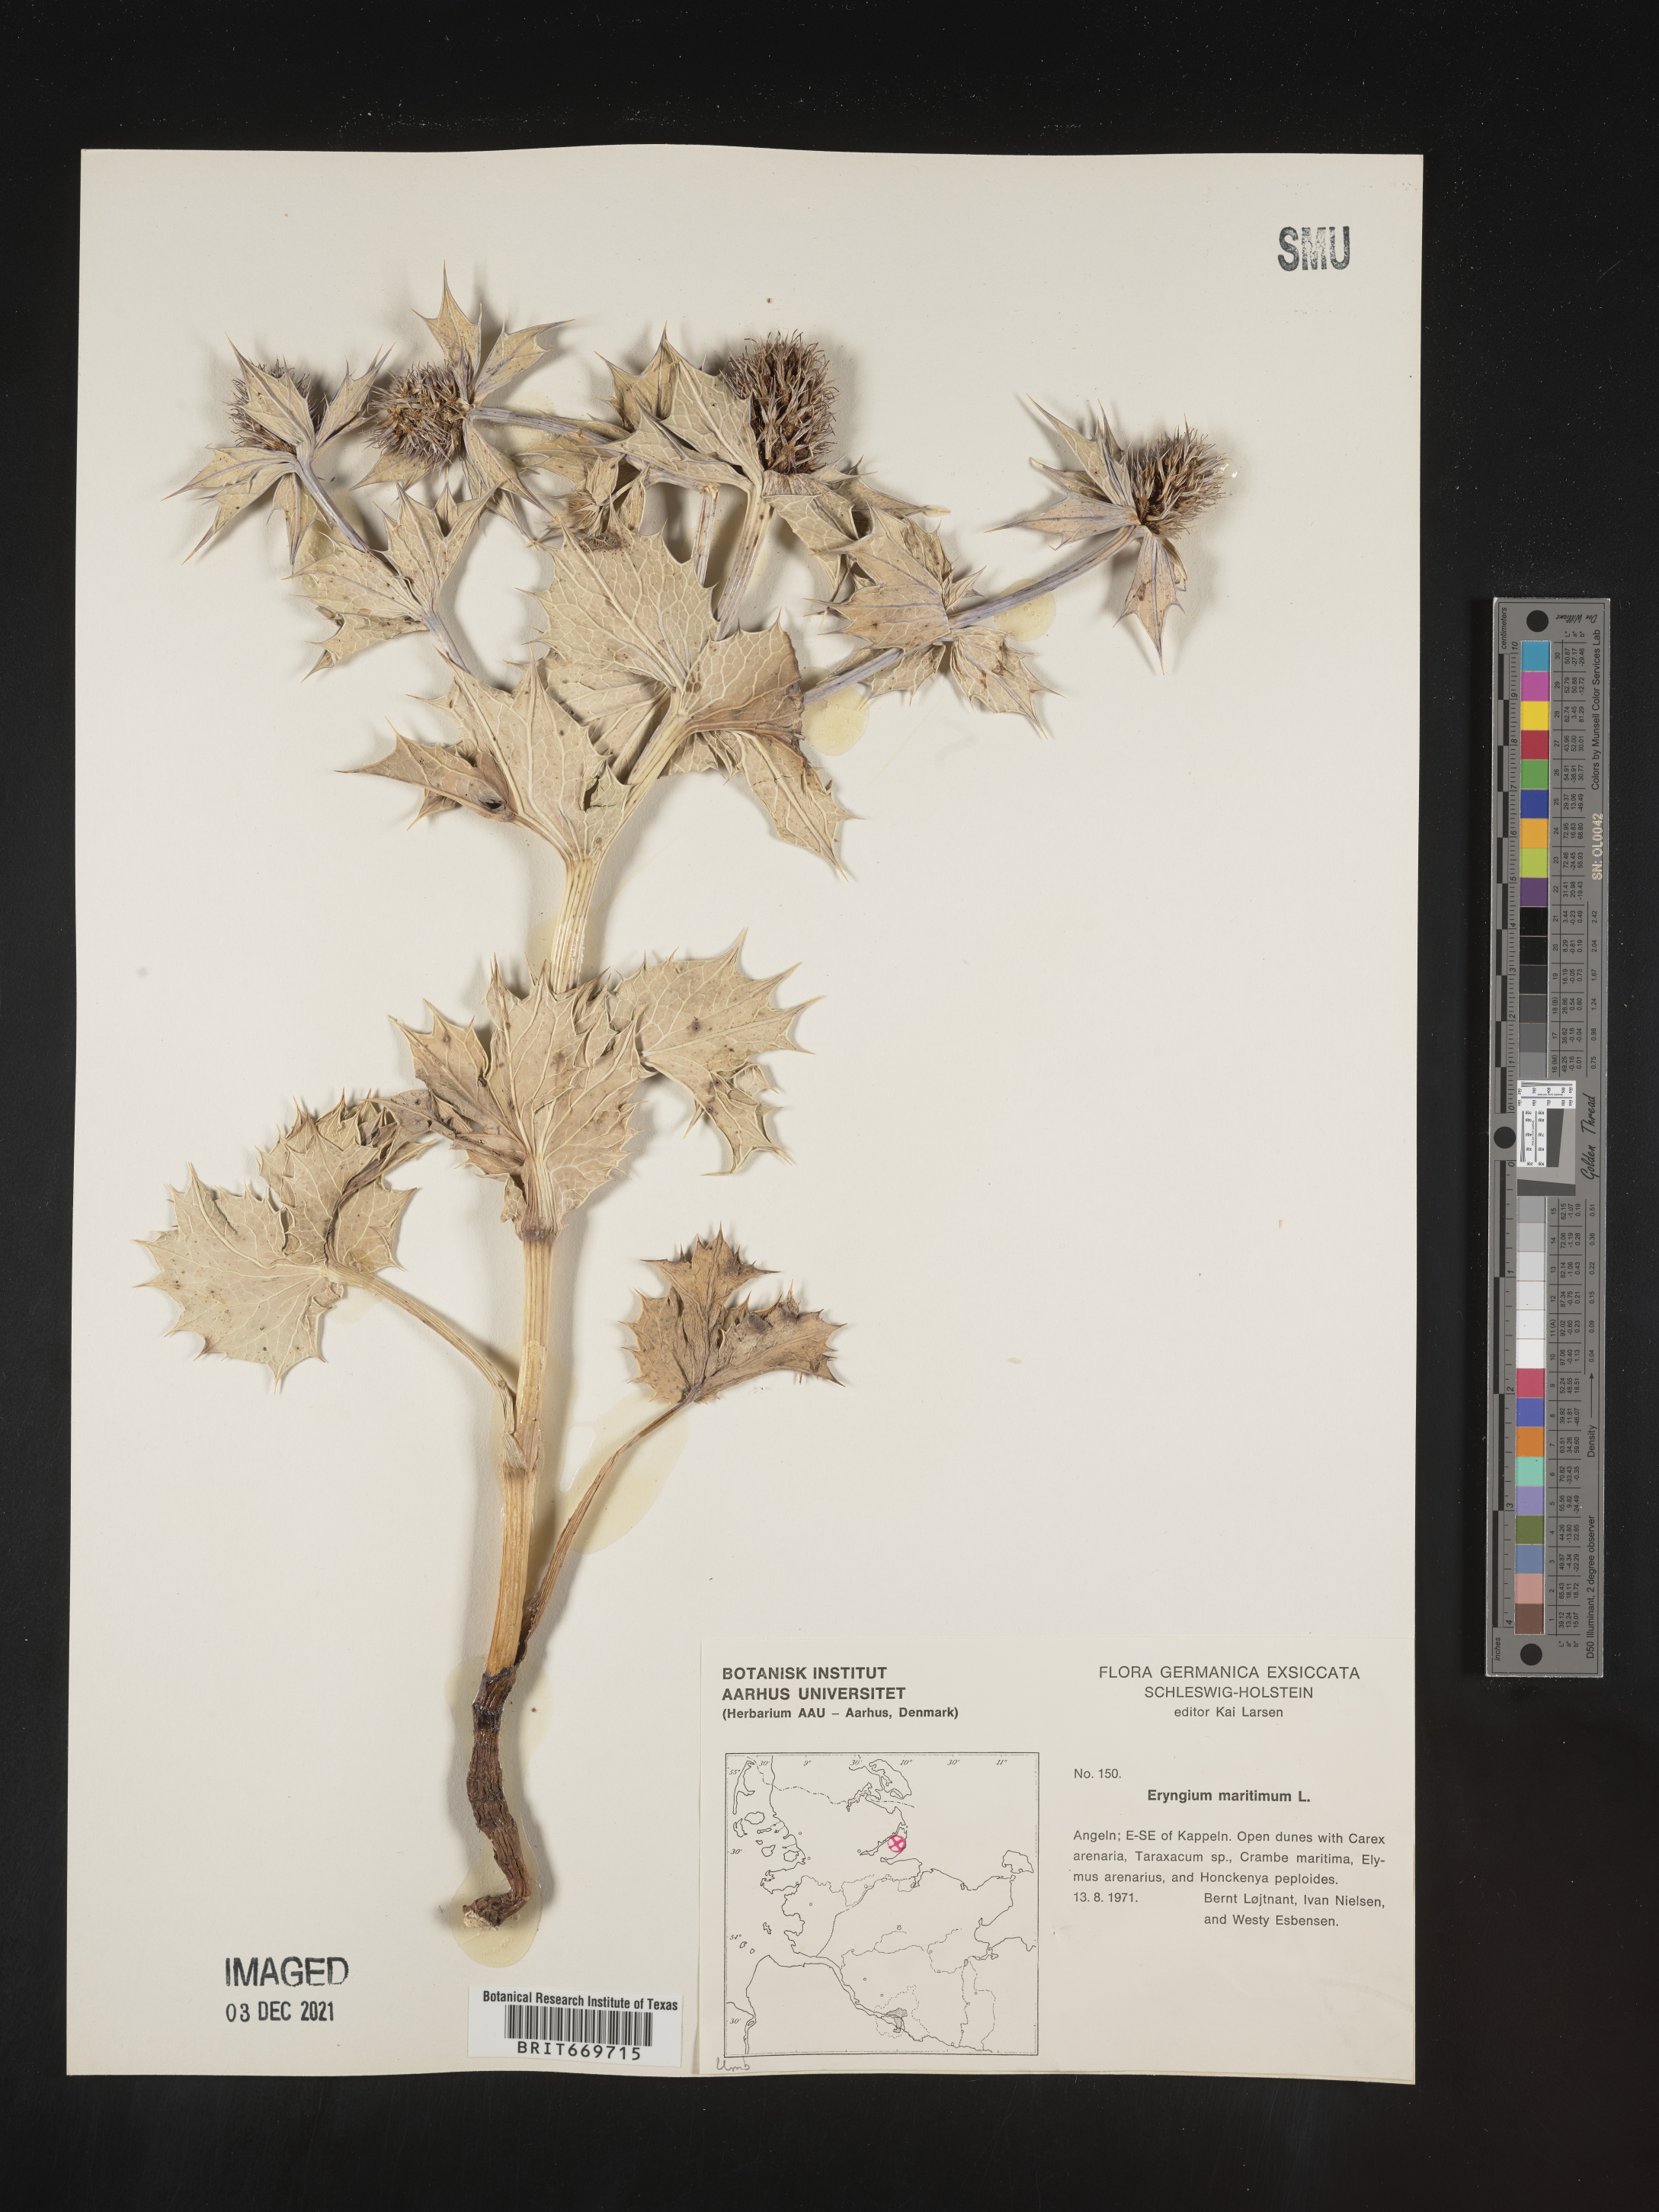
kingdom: Plantae
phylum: Tracheophyta
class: Magnoliopsida
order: Apiales
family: Apiaceae
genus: Eryngium
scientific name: Eryngium
